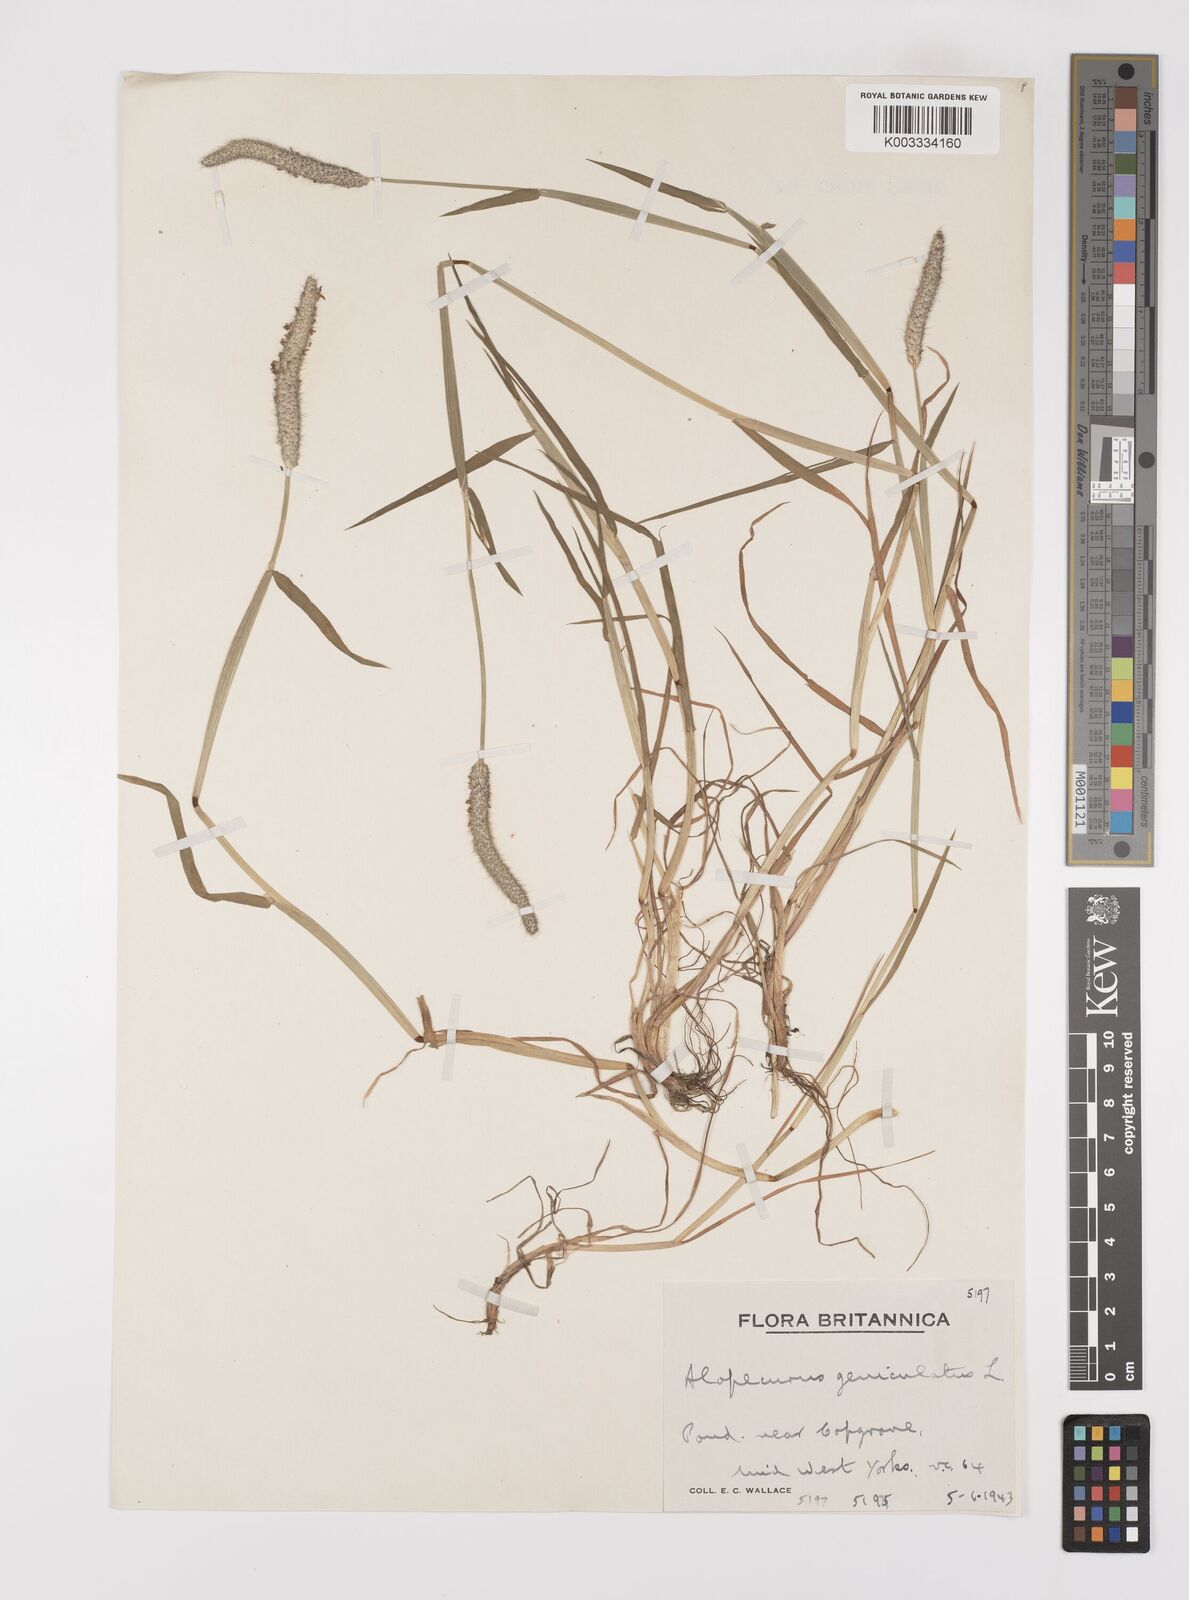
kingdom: Plantae
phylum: Tracheophyta
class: Liliopsida
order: Poales
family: Poaceae
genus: Alopecurus
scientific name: Alopecurus geniculatus
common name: Water foxtail
